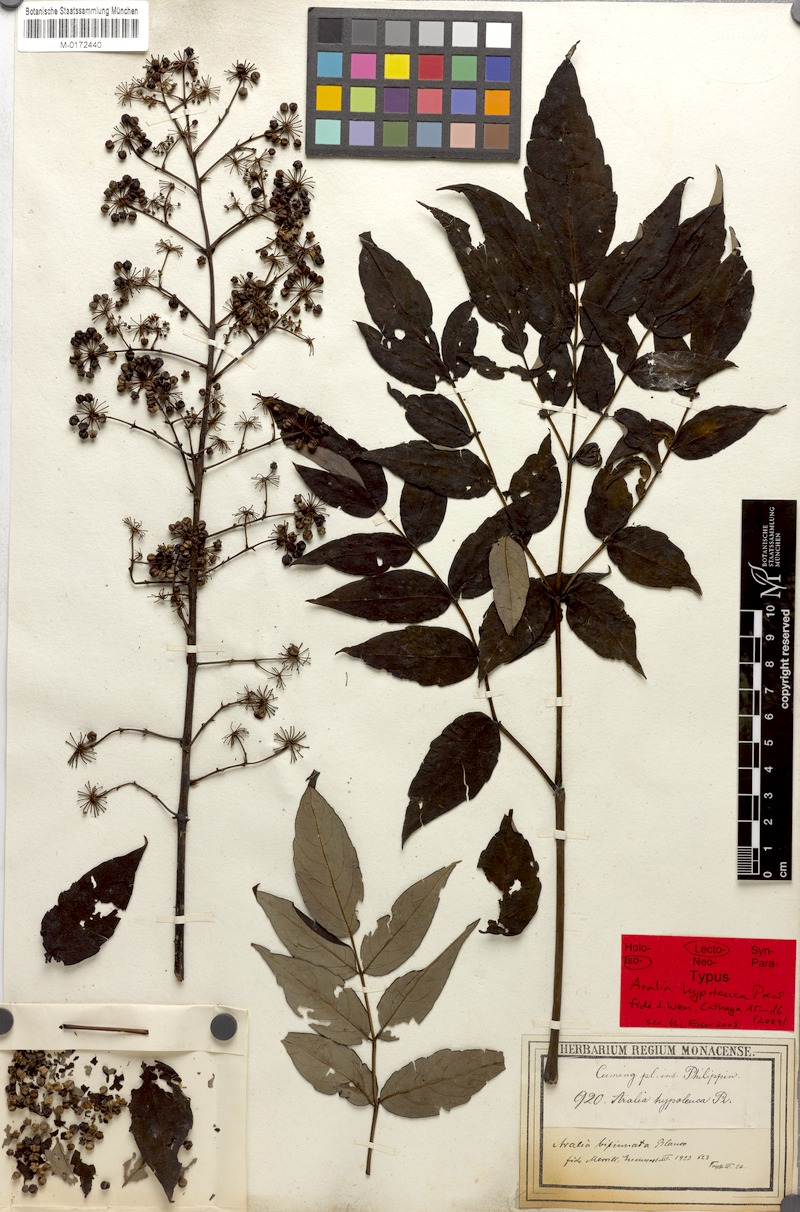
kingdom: Plantae
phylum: Tracheophyta
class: Magnoliopsida
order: Apiales
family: Araliaceae
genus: Aralia
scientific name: Aralia bipinnata
